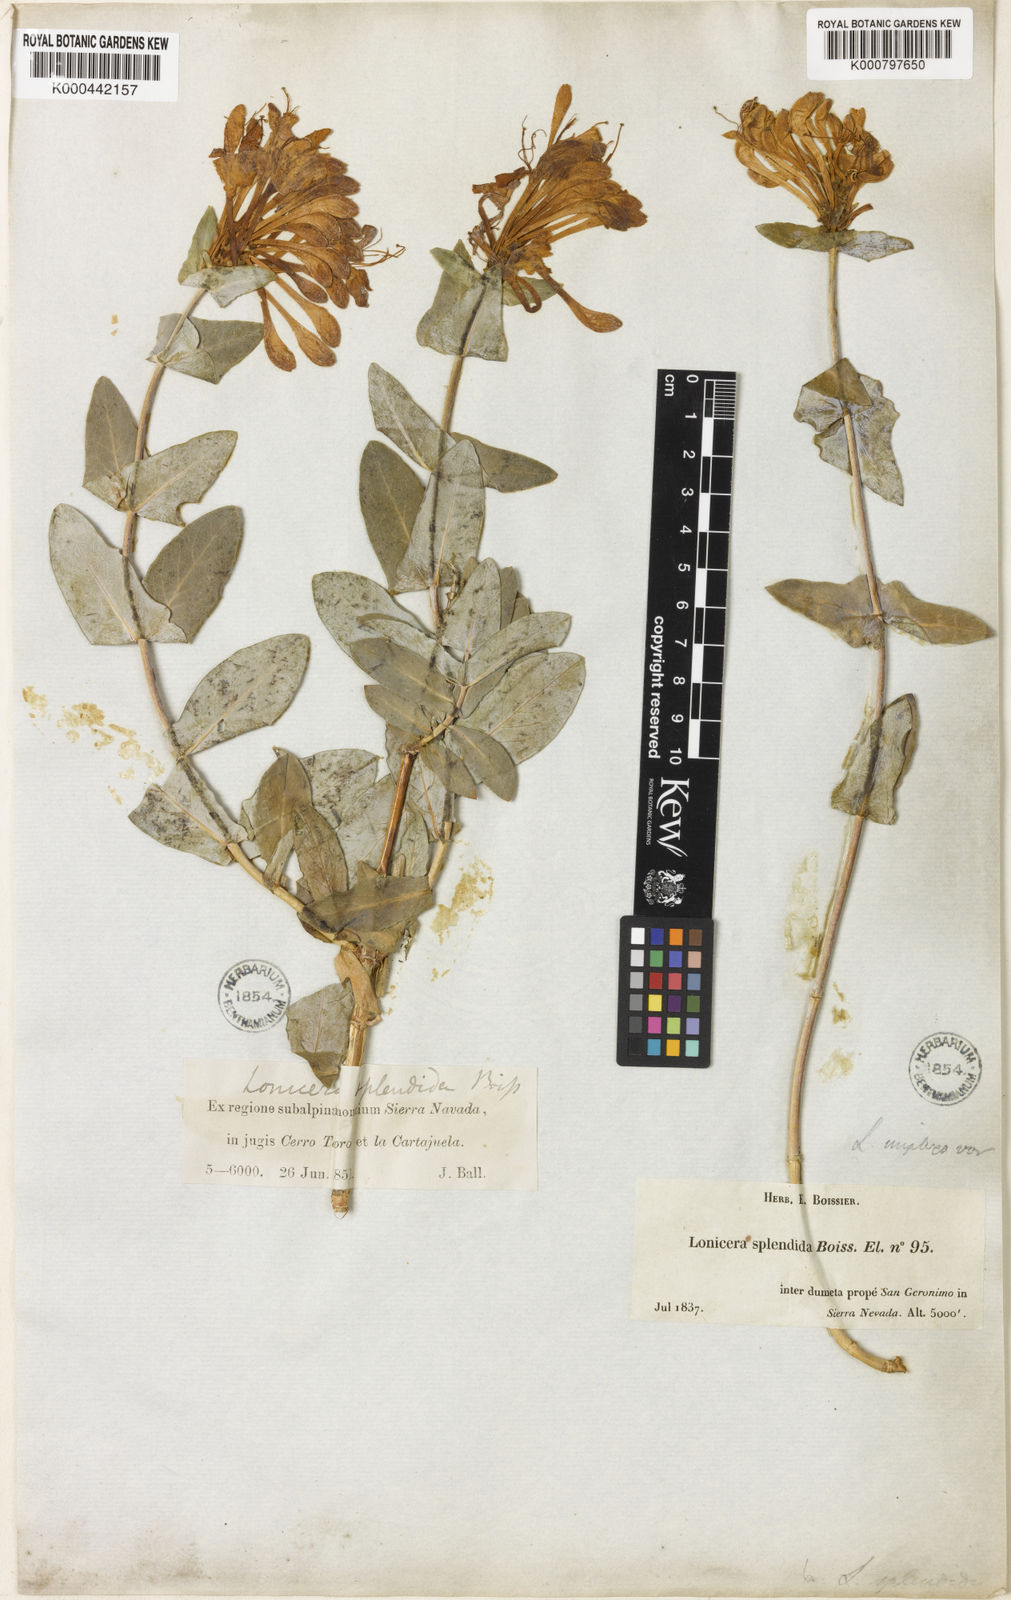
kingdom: Plantae
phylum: Tracheophyta
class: Magnoliopsida
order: Dipsacales
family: Caprifoliaceae
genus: Lonicera
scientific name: Lonicera splendida
